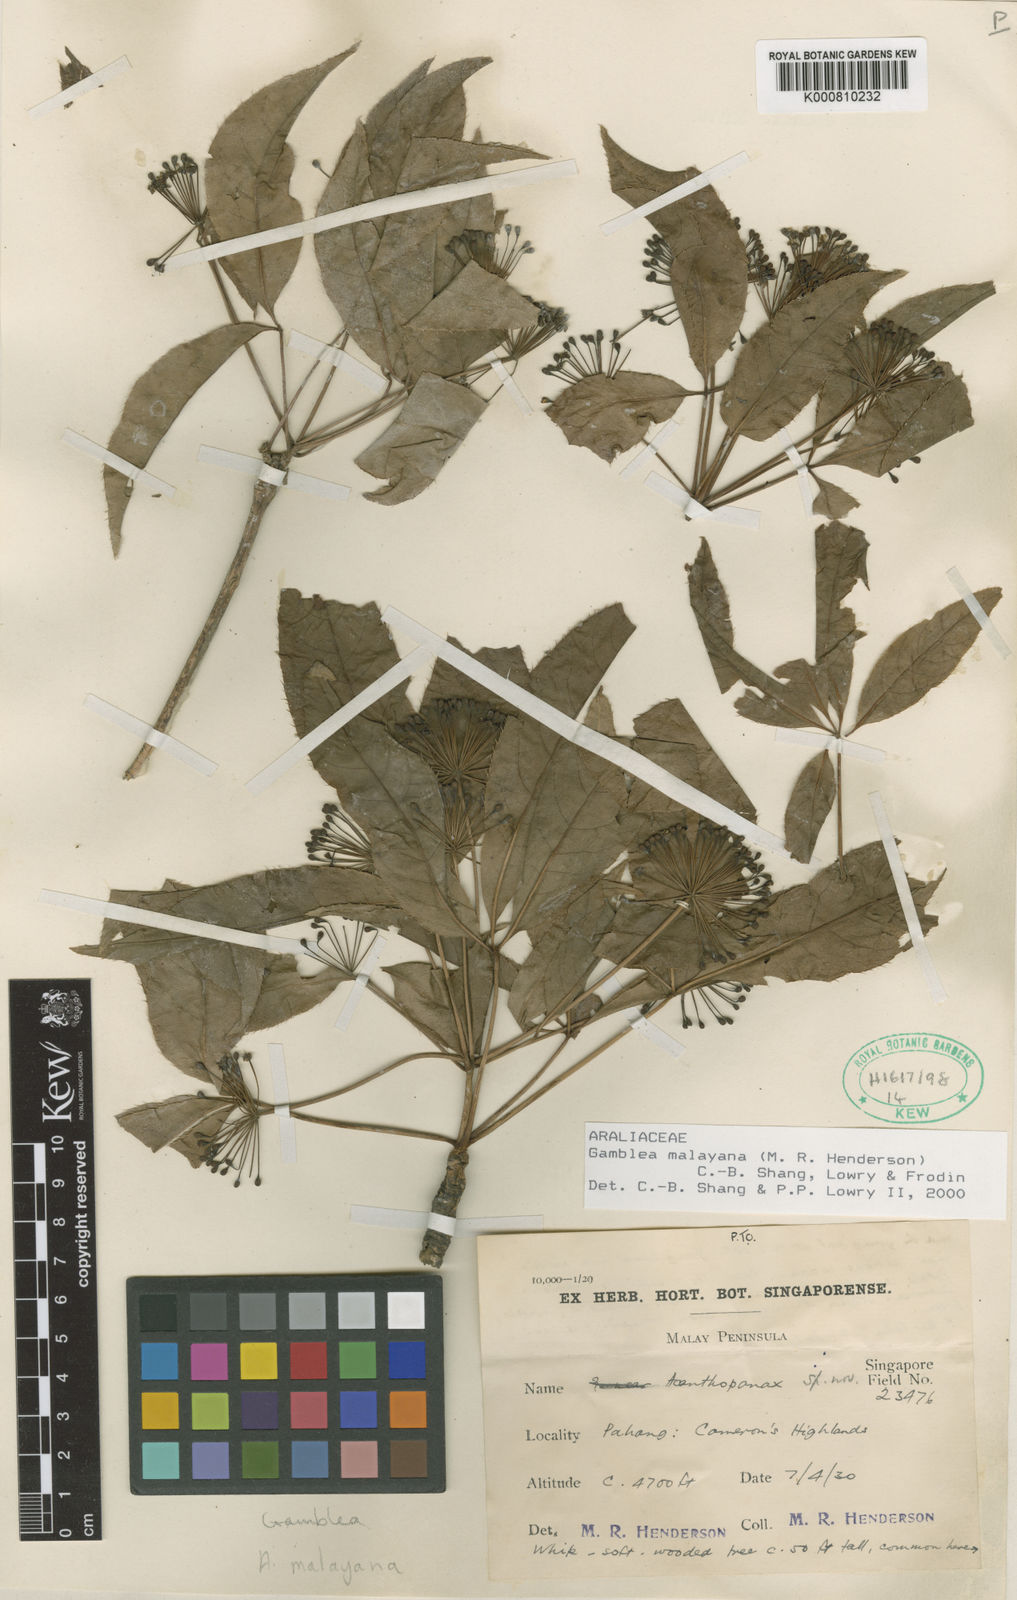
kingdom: Plantae
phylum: Tracheophyta
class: Magnoliopsida
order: Apiales
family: Araliaceae
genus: Gamblea
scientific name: Gamblea malayana
